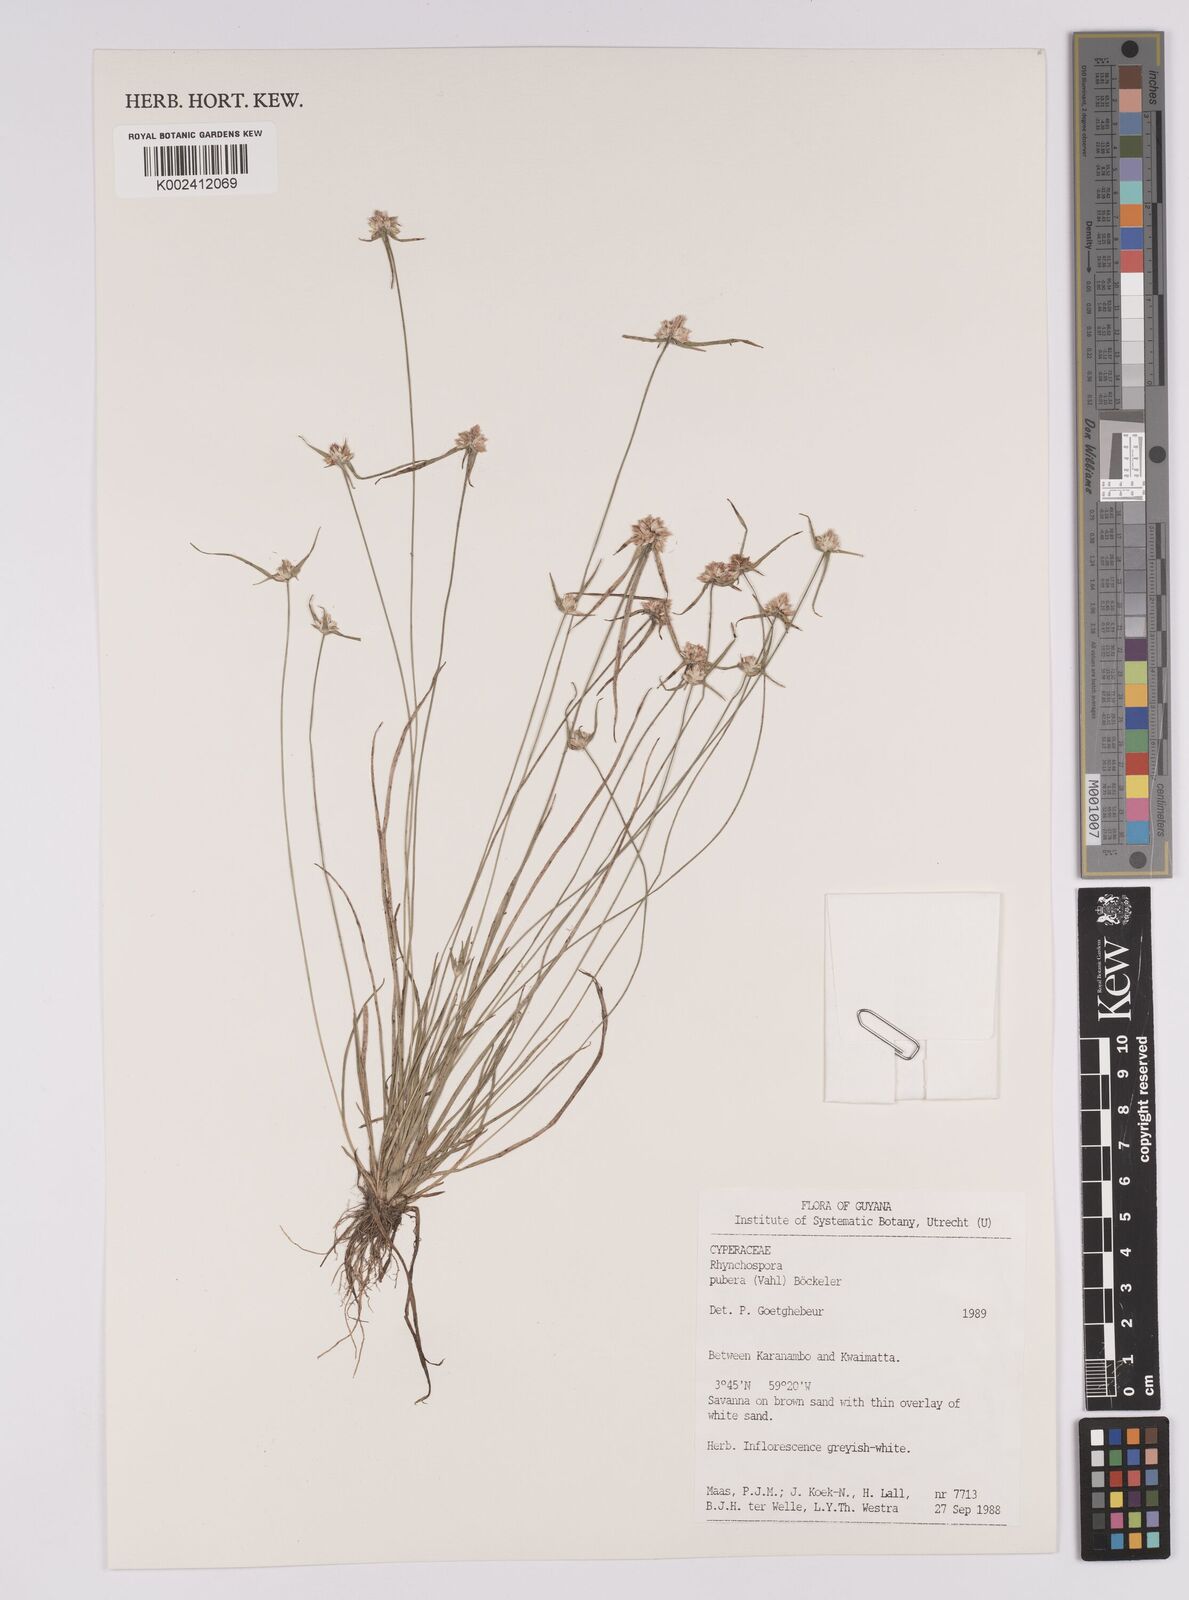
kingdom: Plantae
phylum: Tracheophyta
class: Liliopsida
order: Poales
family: Cyperaceae
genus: Rhynchospora
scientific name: Rhynchospora pubera
